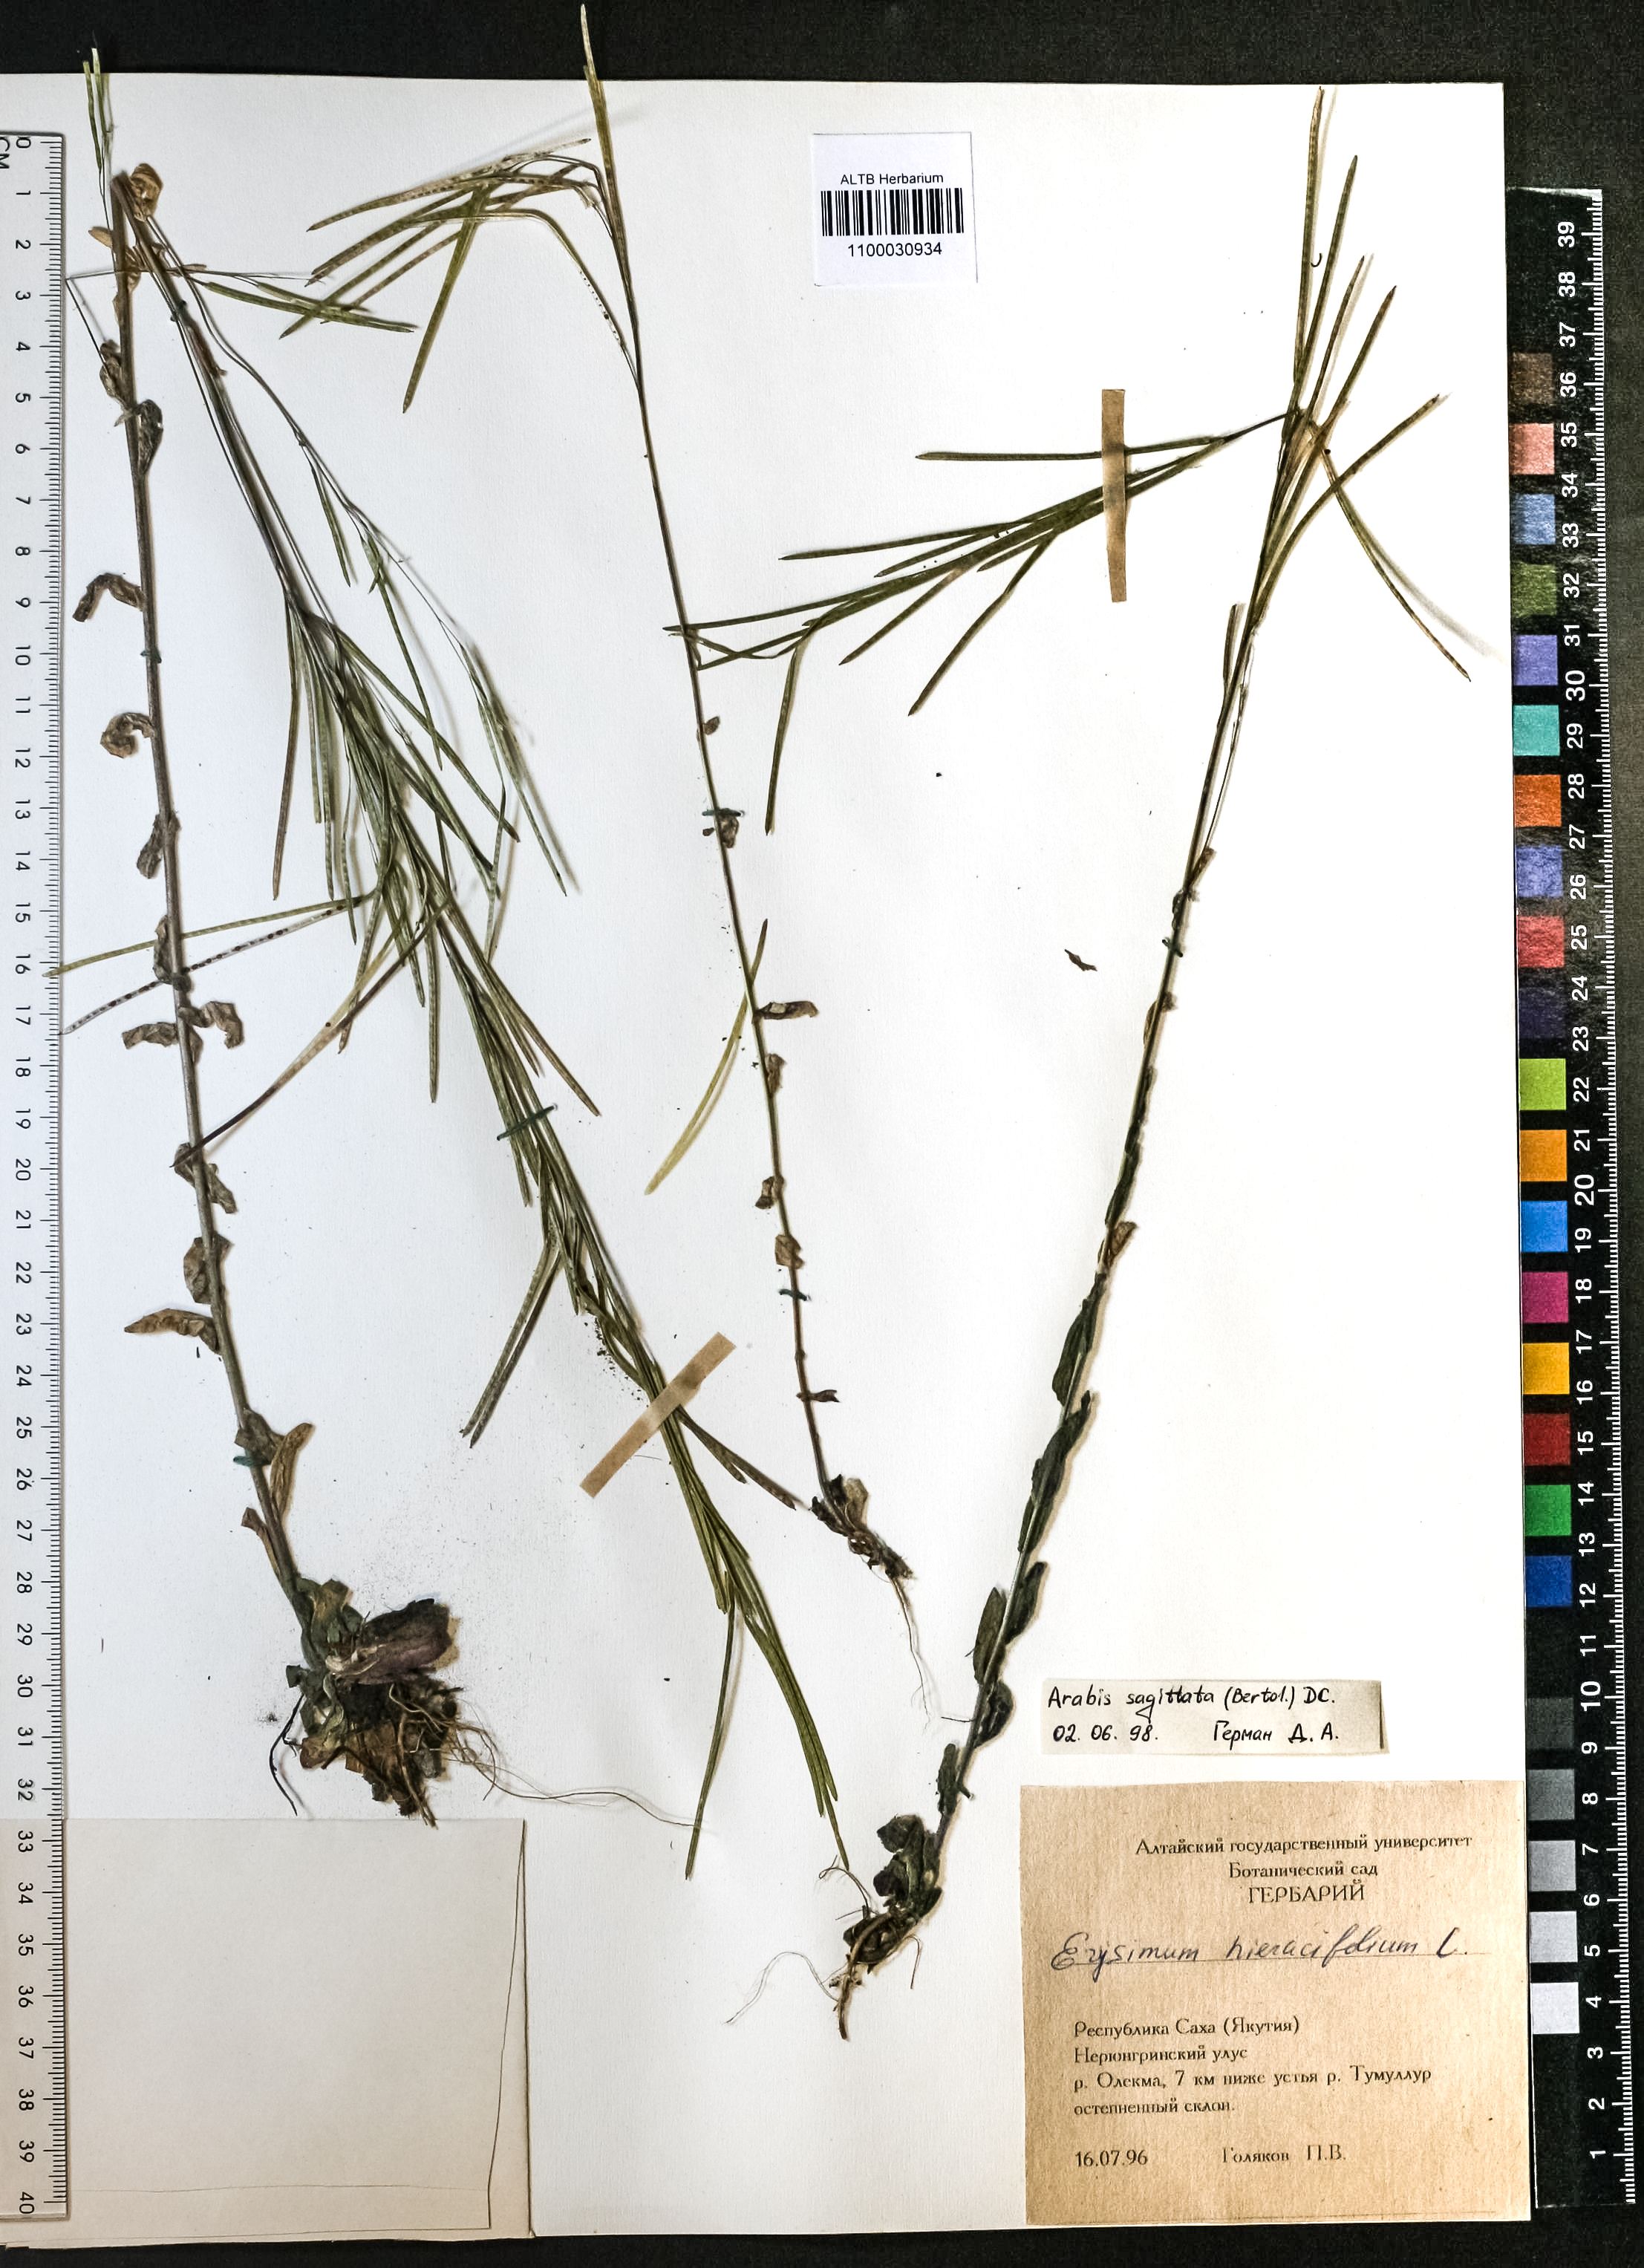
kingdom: Plantae
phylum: Tracheophyta
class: Magnoliopsida
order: Brassicales
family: Brassicaceae
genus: Arabis
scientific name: Arabis sagittata
